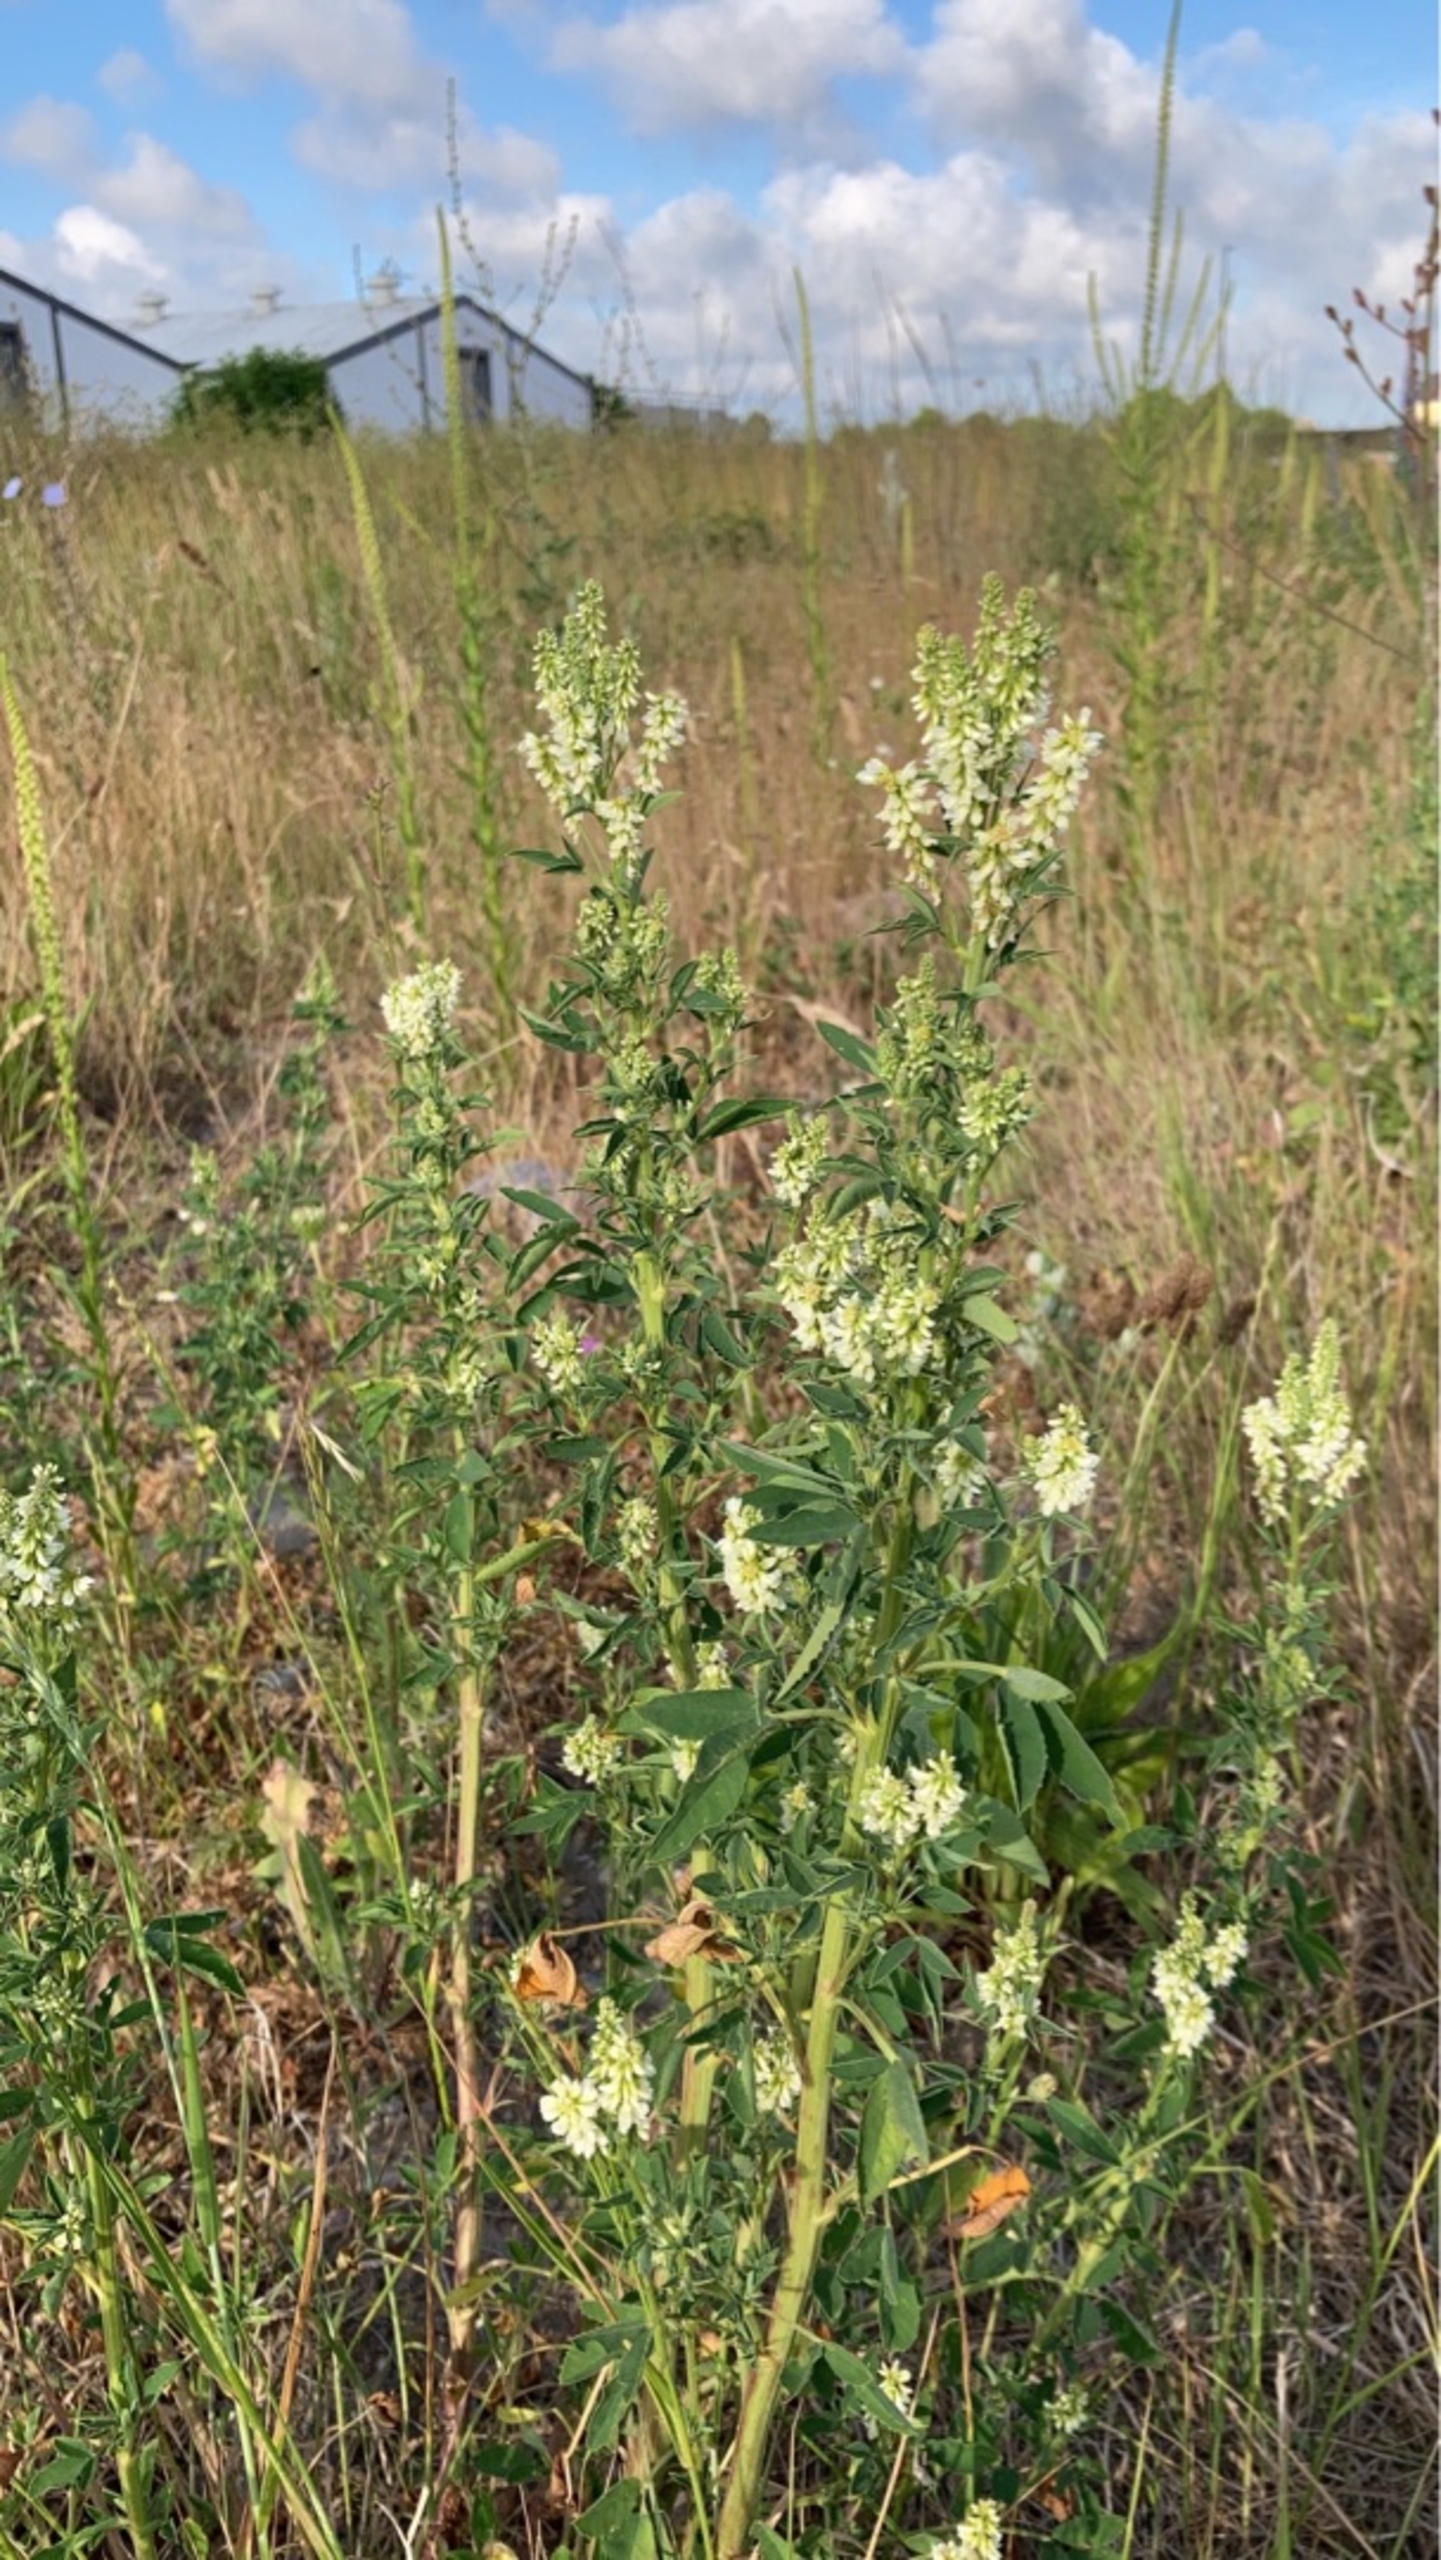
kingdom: Plantae
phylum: Tracheophyta
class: Magnoliopsida
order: Fabales
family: Fabaceae
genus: Melilotus
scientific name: Melilotus albus
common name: Hvid stenkløver
